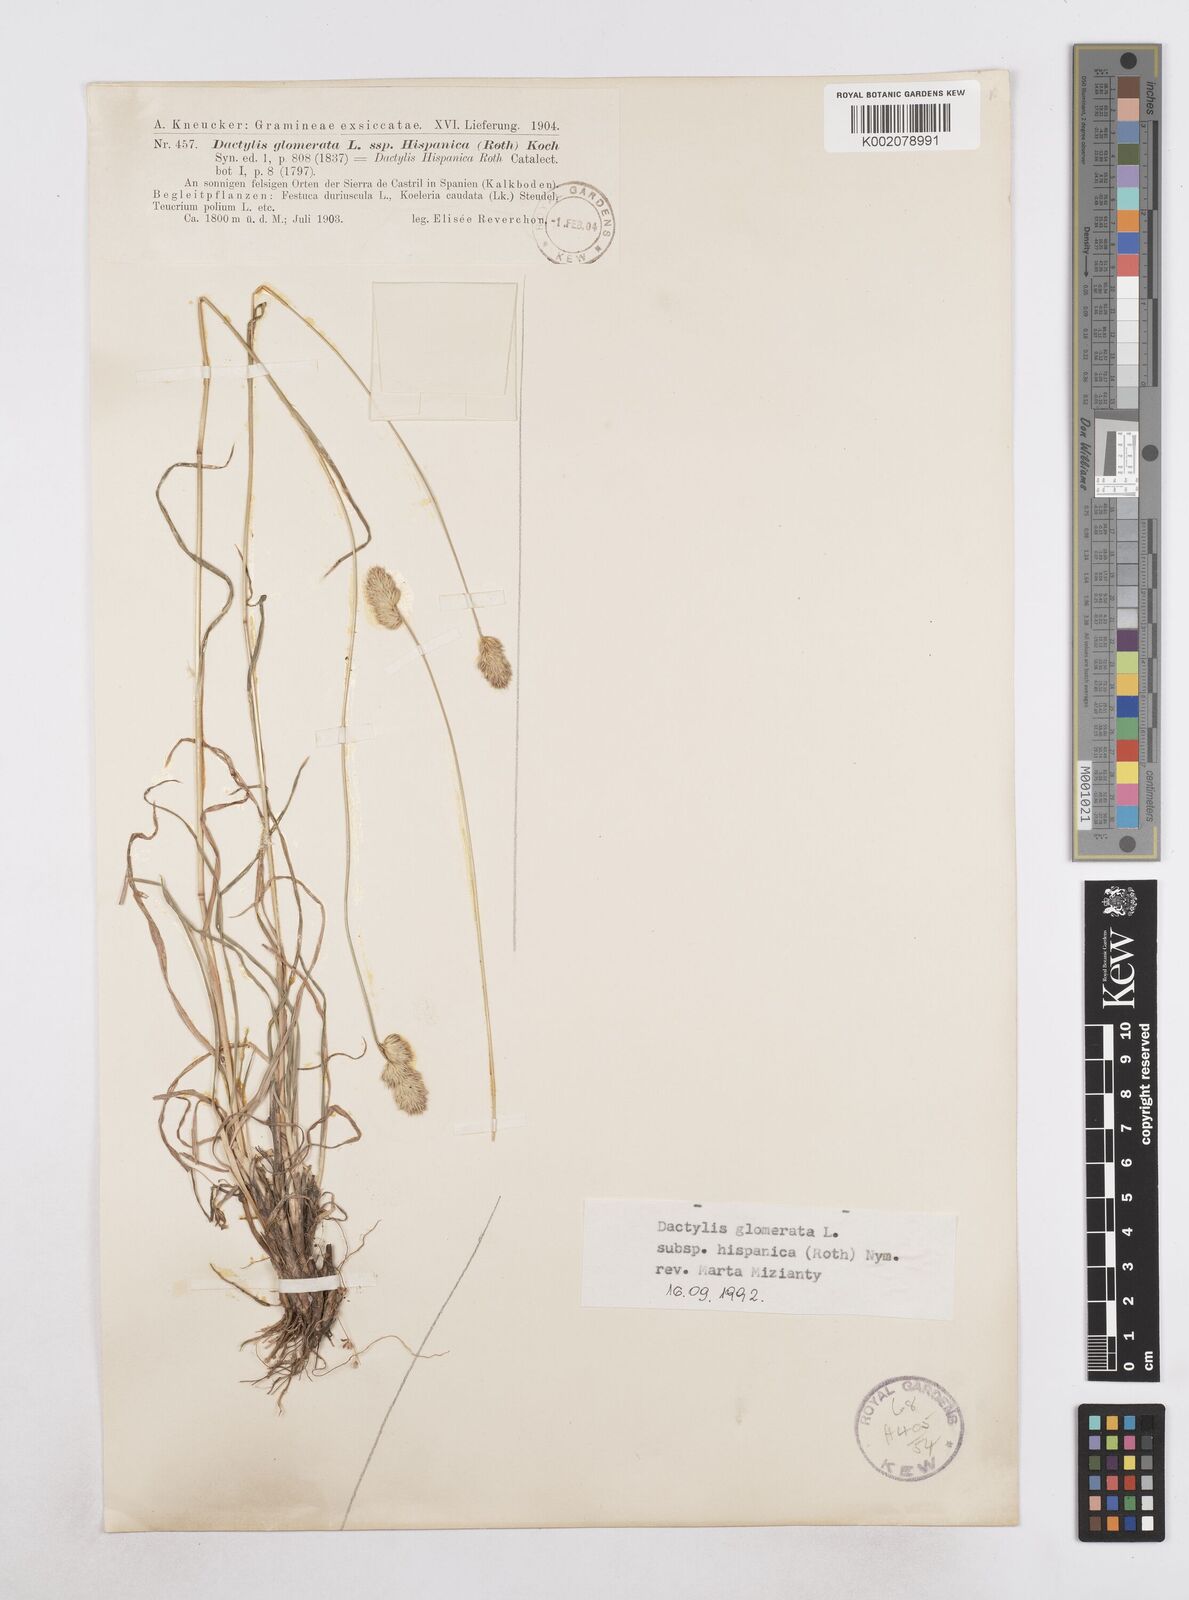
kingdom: Plantae
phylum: Tracheophyta
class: Liliopsida
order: Poales
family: Poaceae
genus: Dactylis
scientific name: Dactylis glomerata
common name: Orchardgrass
